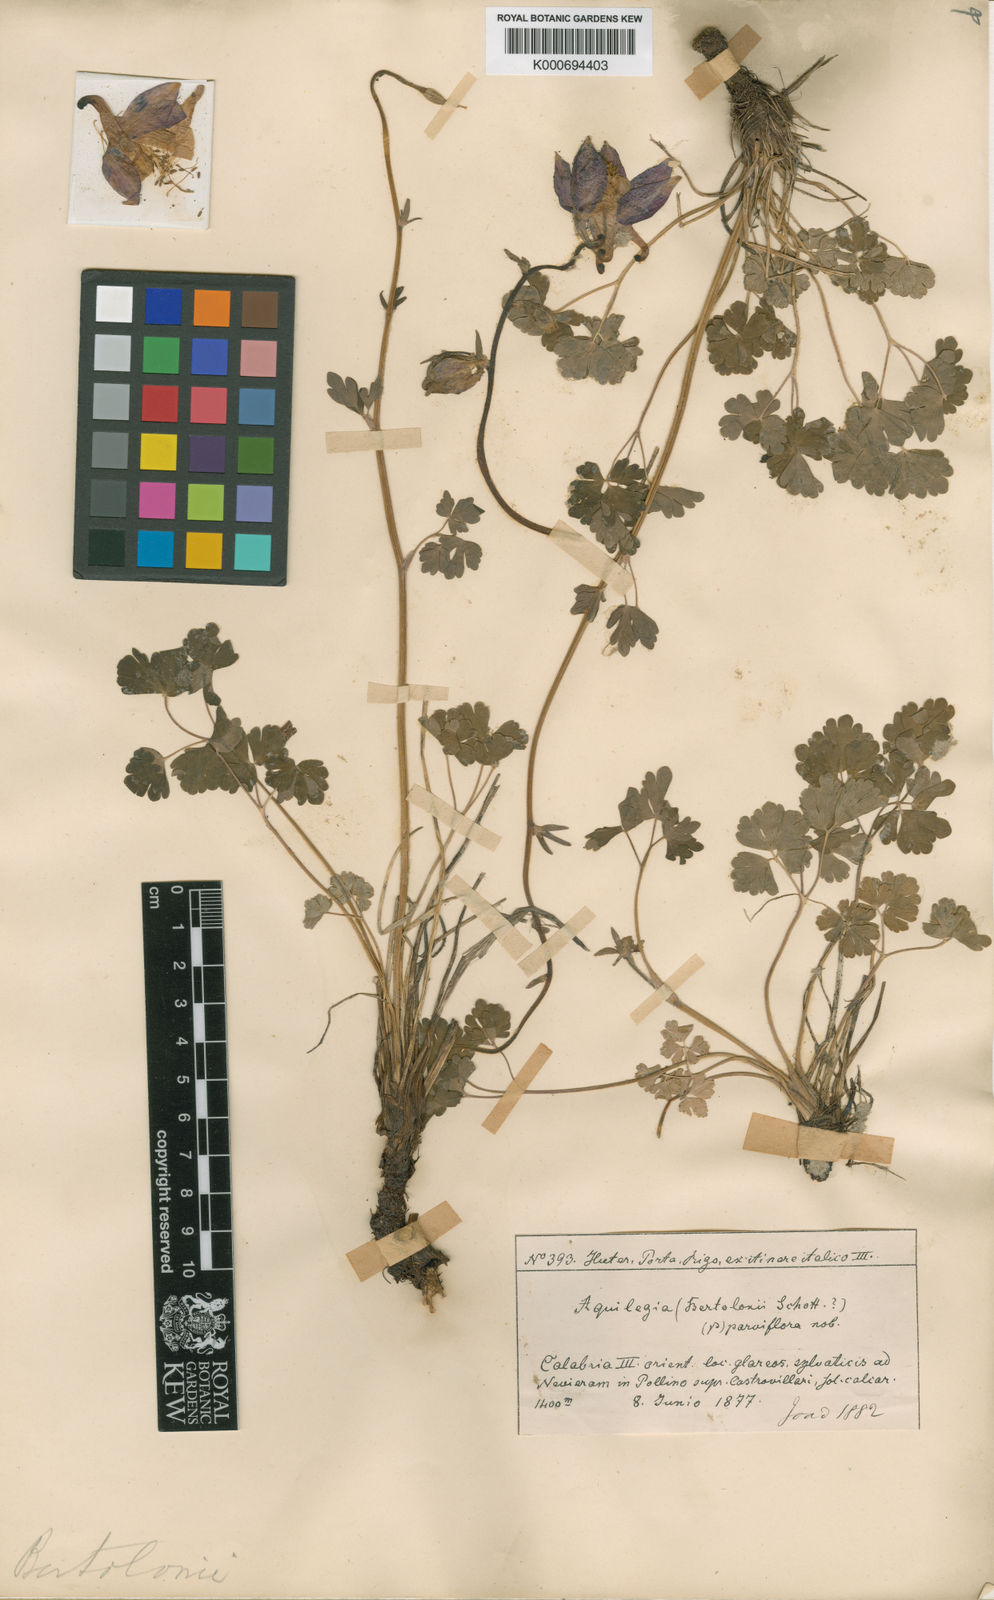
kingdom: Plantae
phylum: Tracheophyta
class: Magnoliopsida
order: Ranunculales
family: Ranunculaceae
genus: Aquilegia
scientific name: Aquilegia vulgaris
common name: Columbine
